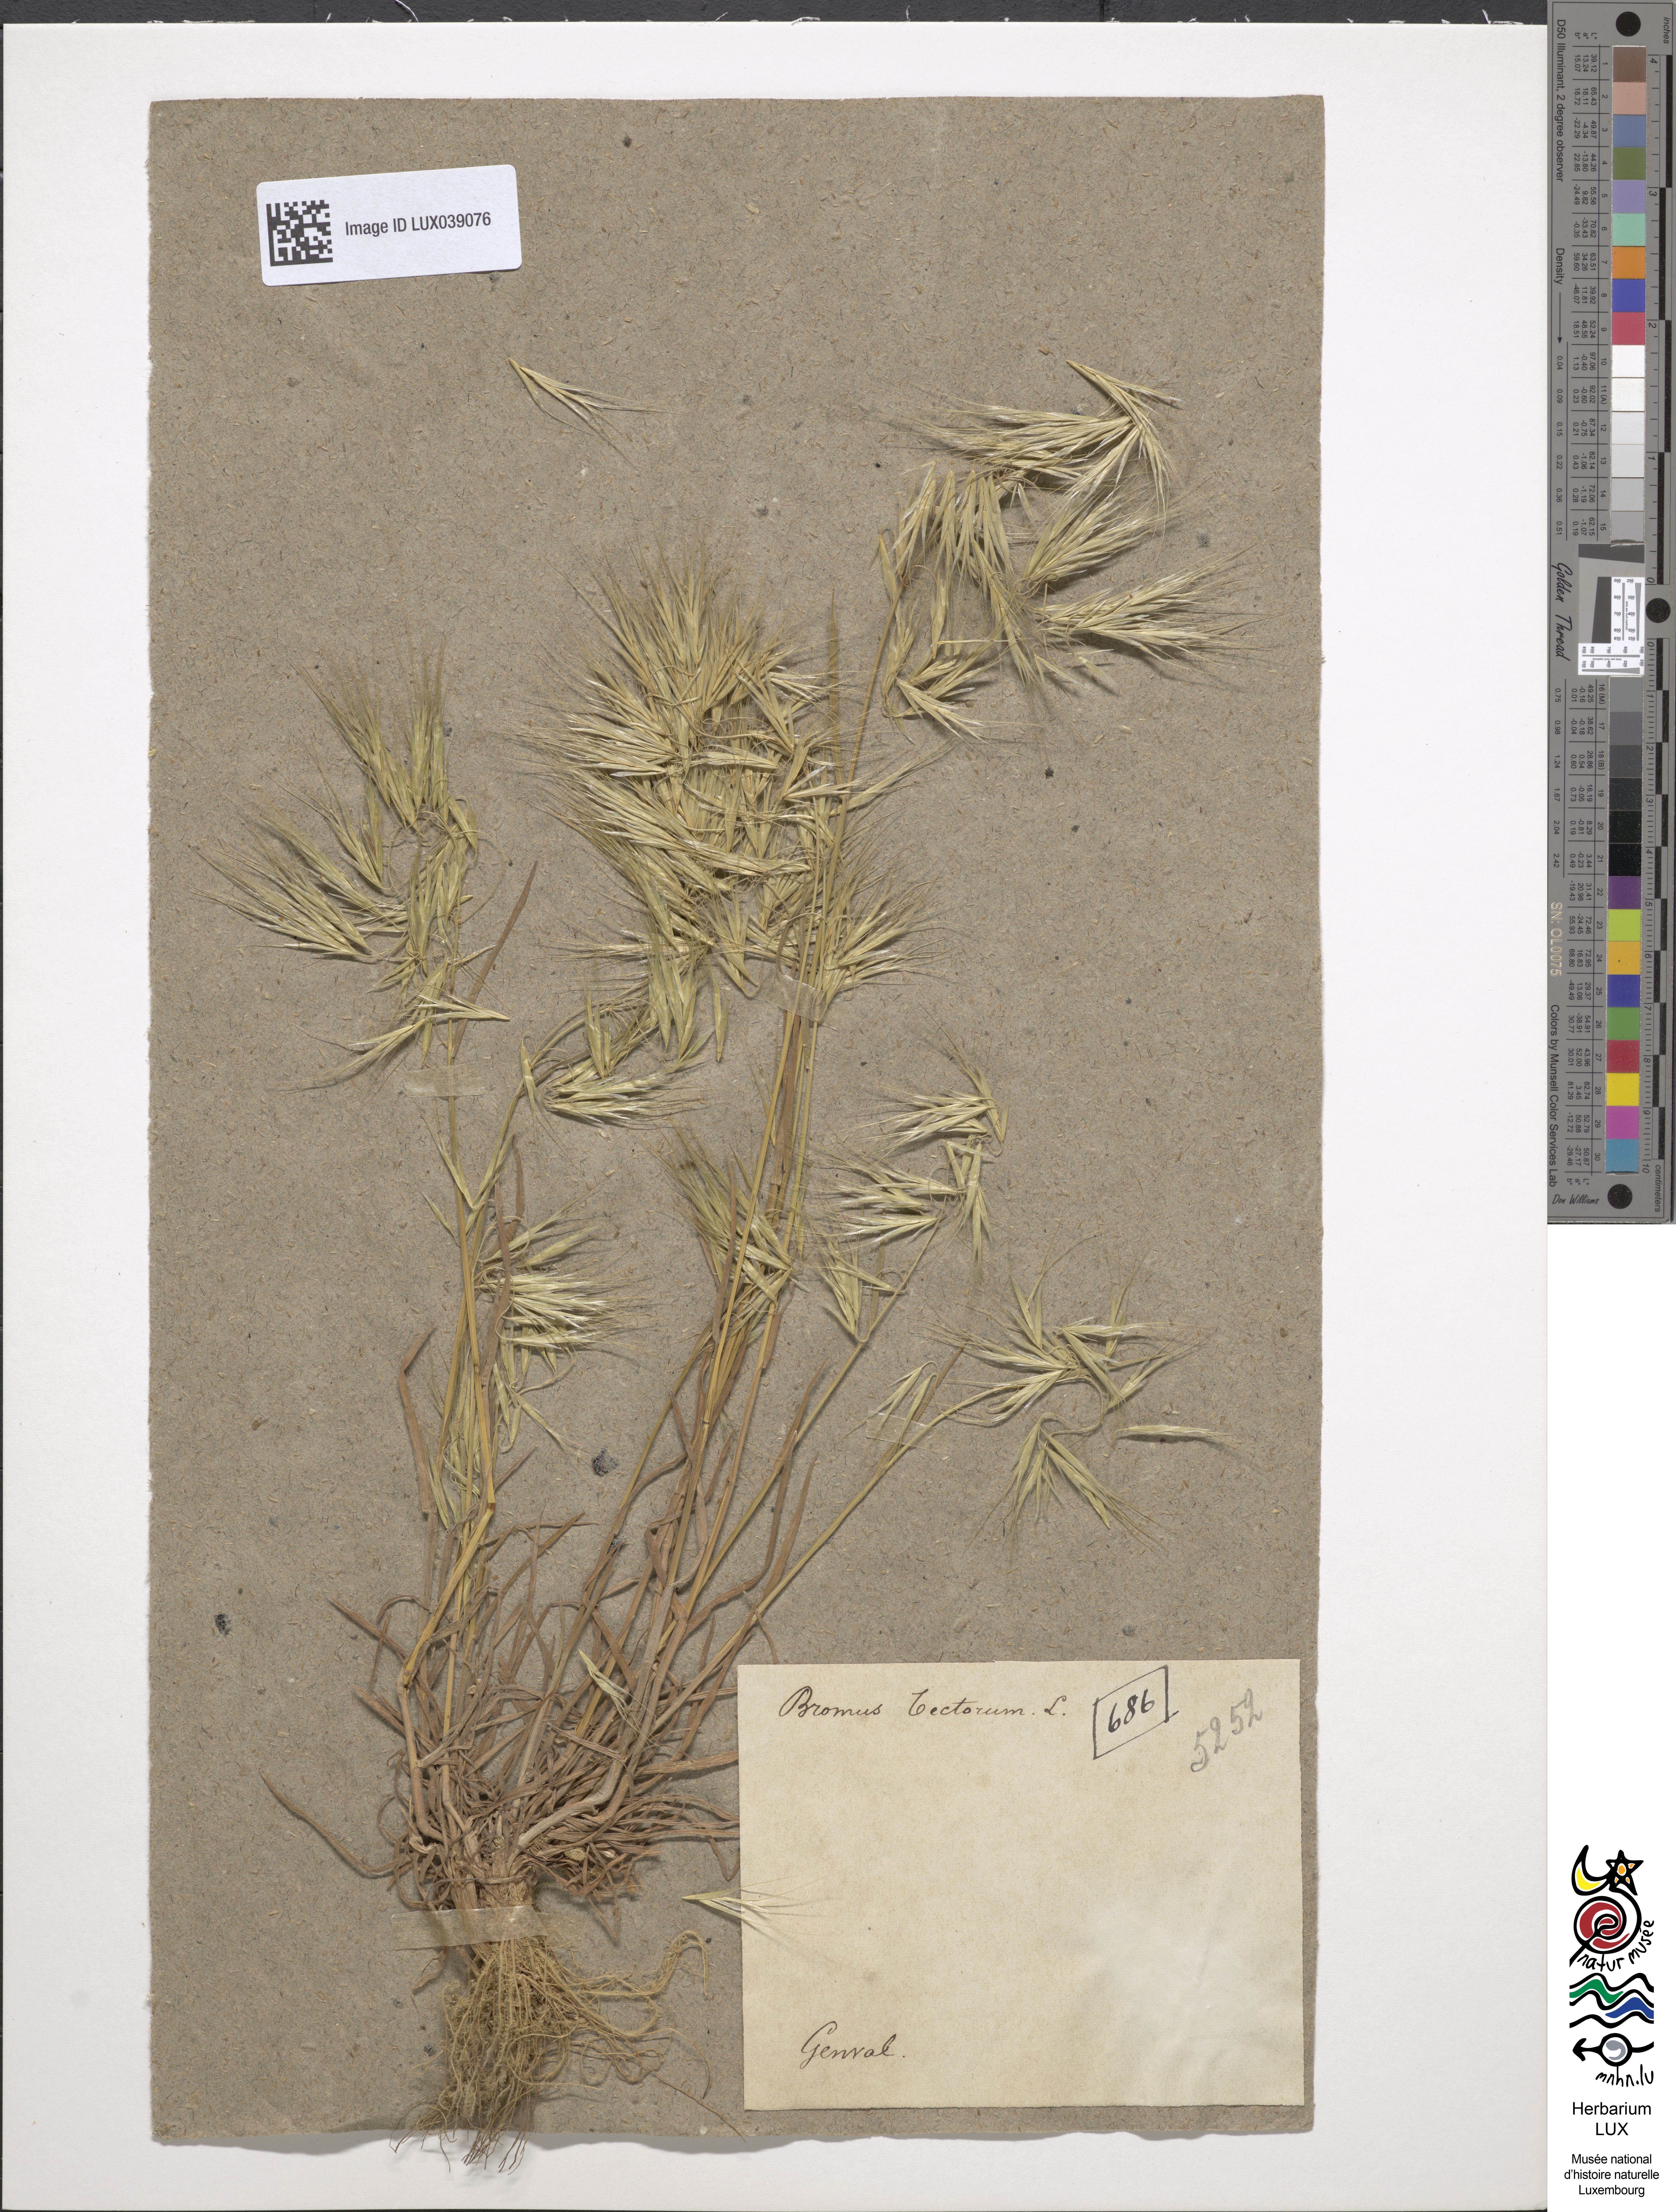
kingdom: Plantae
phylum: Tracheophyta
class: Liliopsida
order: Poales
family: Poaceae
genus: Bromus
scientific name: Bromus tectorum
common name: Cheatgrass
